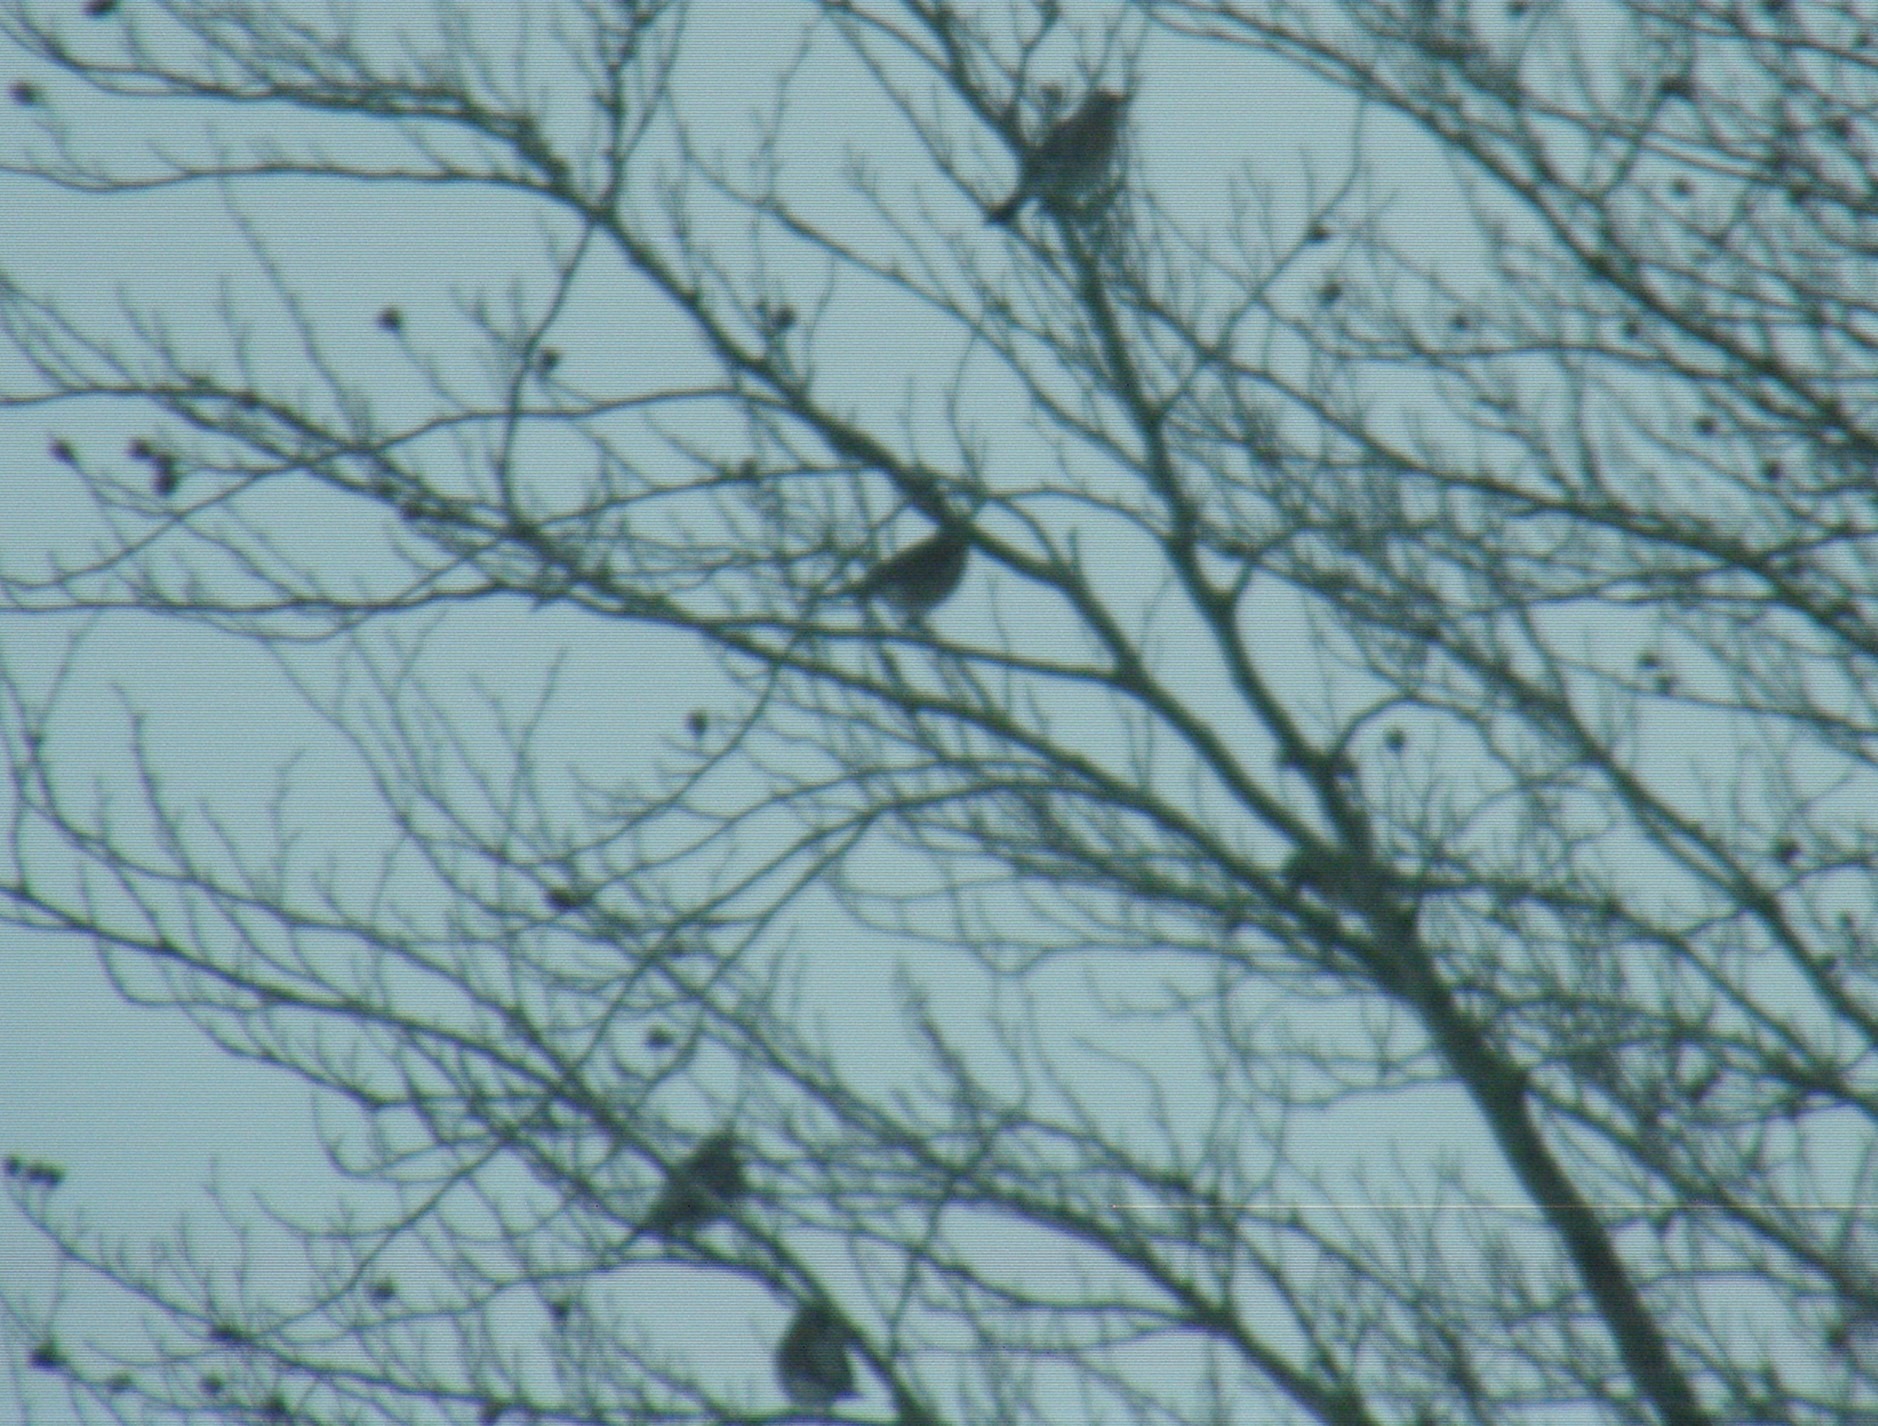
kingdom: Animalia
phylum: Chordata
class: Aves
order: Passeriformes
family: Turdidae
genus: Turdus
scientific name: Turdus pilaris
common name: Sjagger
